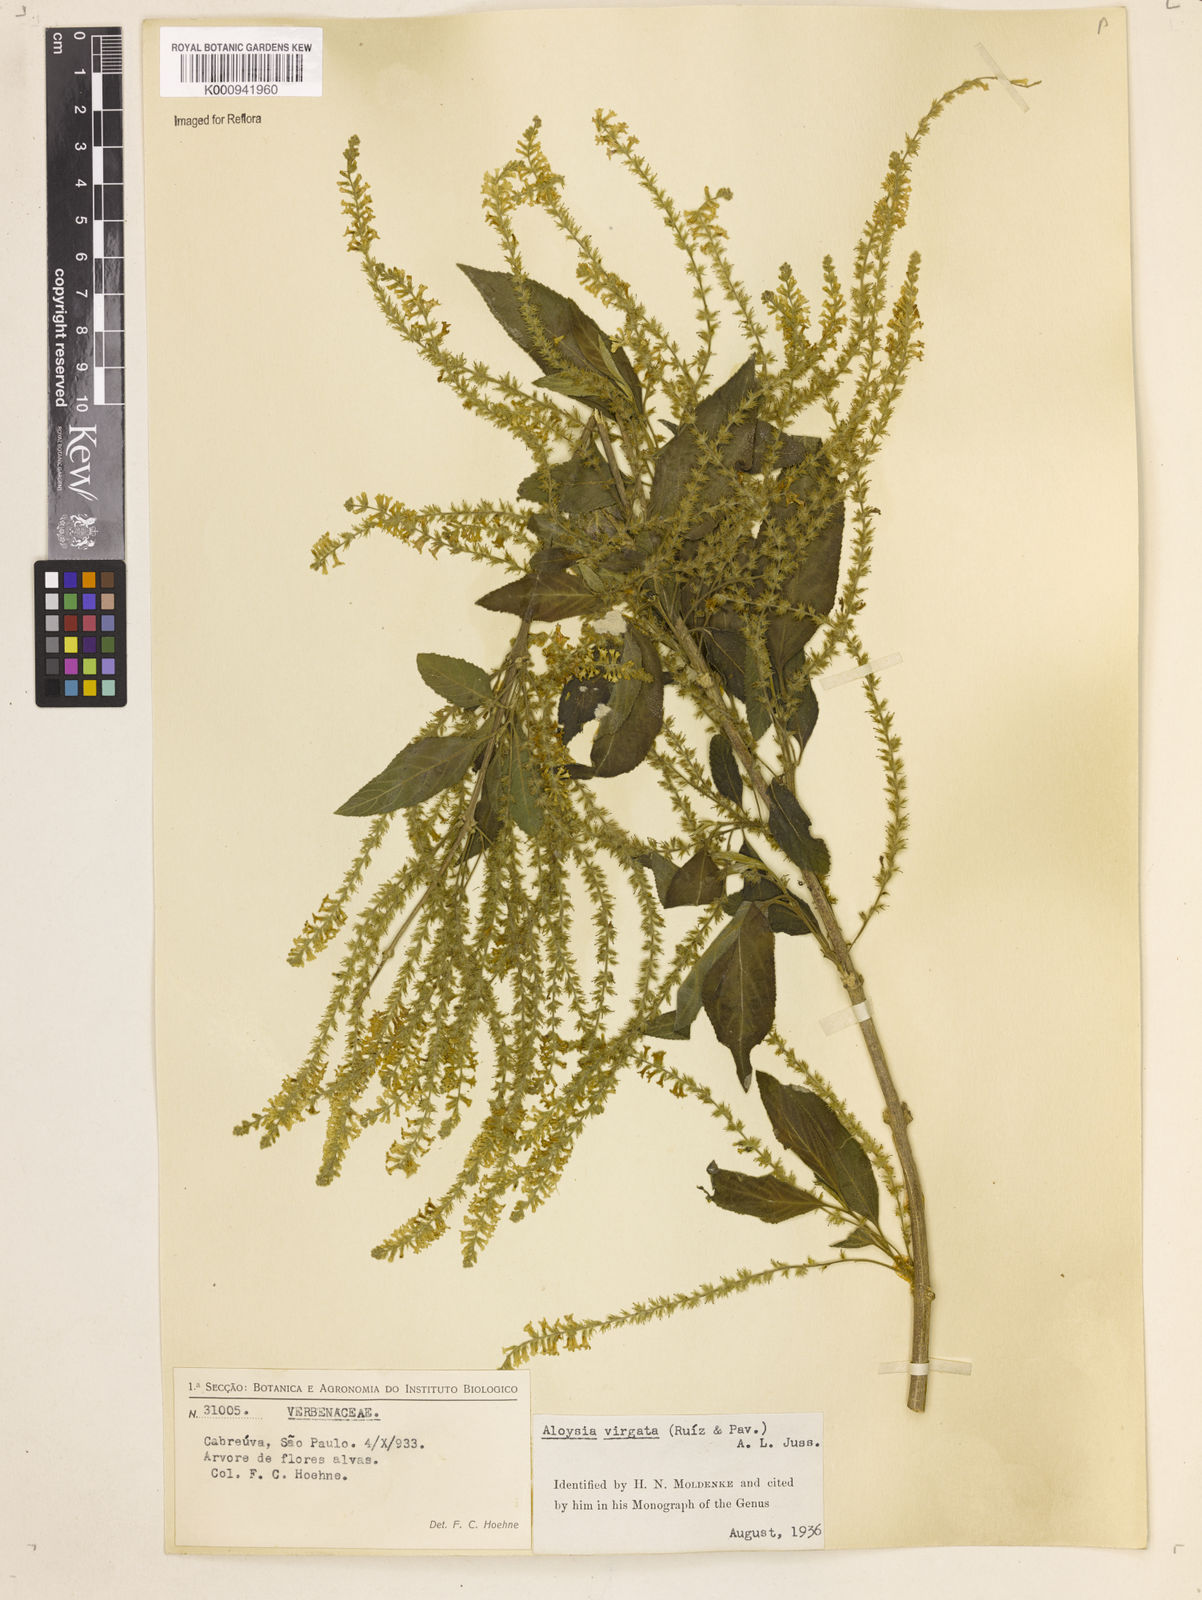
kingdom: Plantae
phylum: Tracheophyta
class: Magnoliopsida
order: Lamiales
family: Verbenaceae
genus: Aloysia
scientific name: Aloysia
